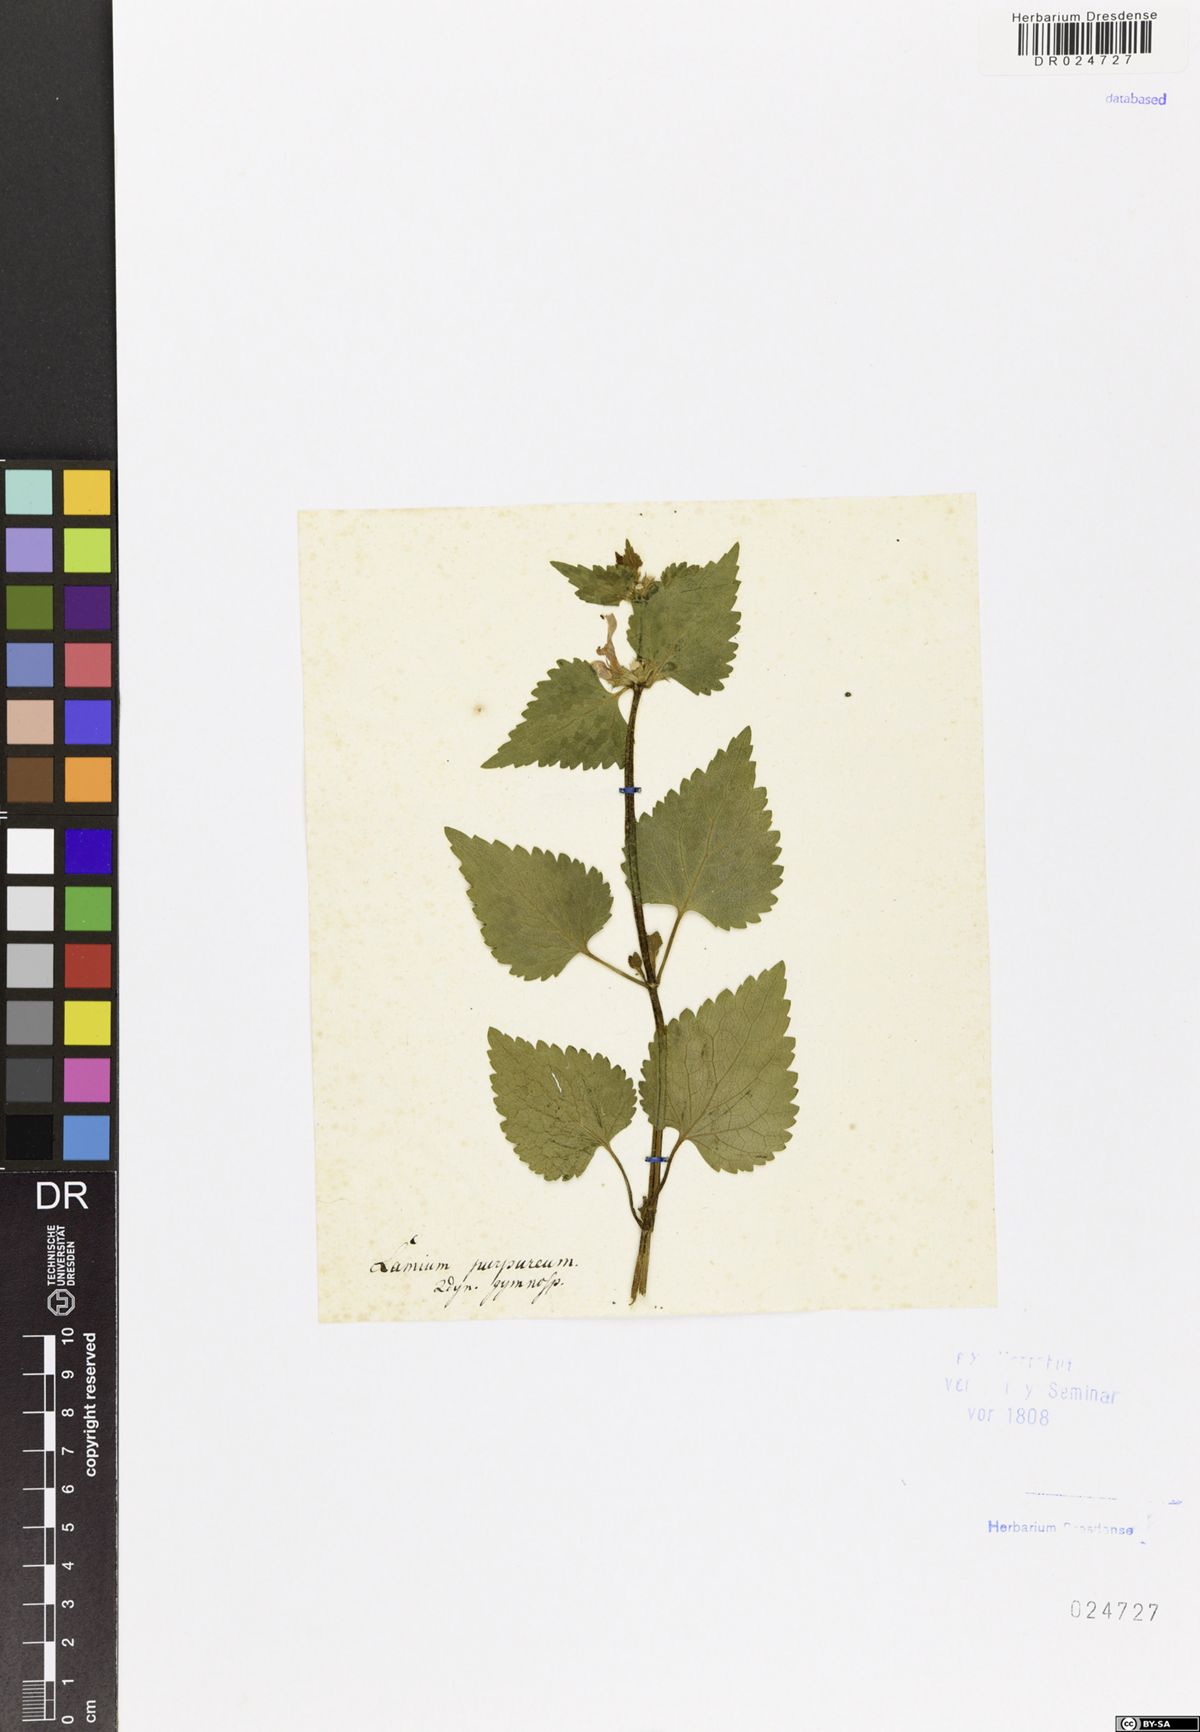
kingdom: Plantae
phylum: Tracheophyta
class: Magnoliopsida
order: Lamiales
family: Lamiaceae
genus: Lamium
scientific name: Lamium maculatum
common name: Spotted dead-nettle
